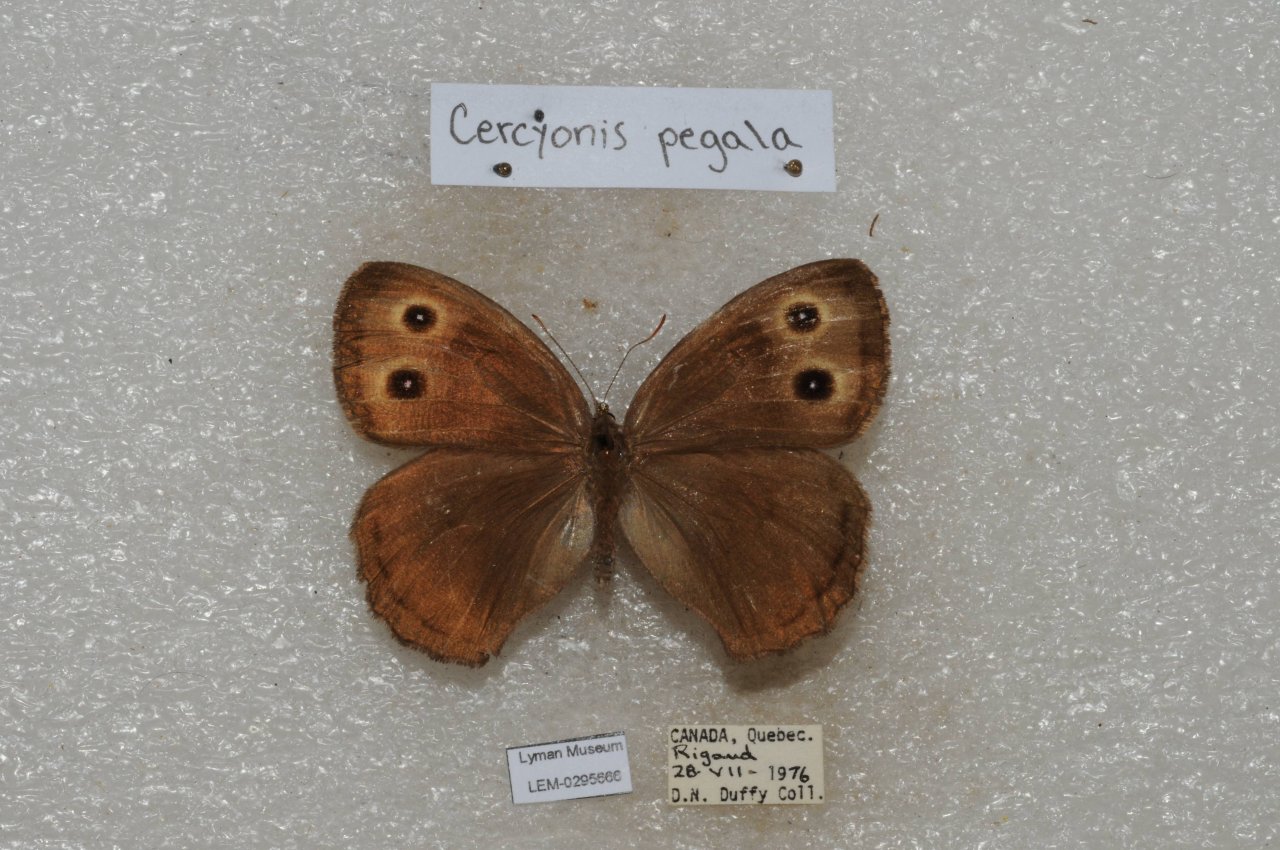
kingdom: Animalia
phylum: Arthropoda
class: Insecta
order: Lepidoptera
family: Nymphalidae
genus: Cercyonis
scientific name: Cercyonis pegala
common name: Common Wood-Nymph
